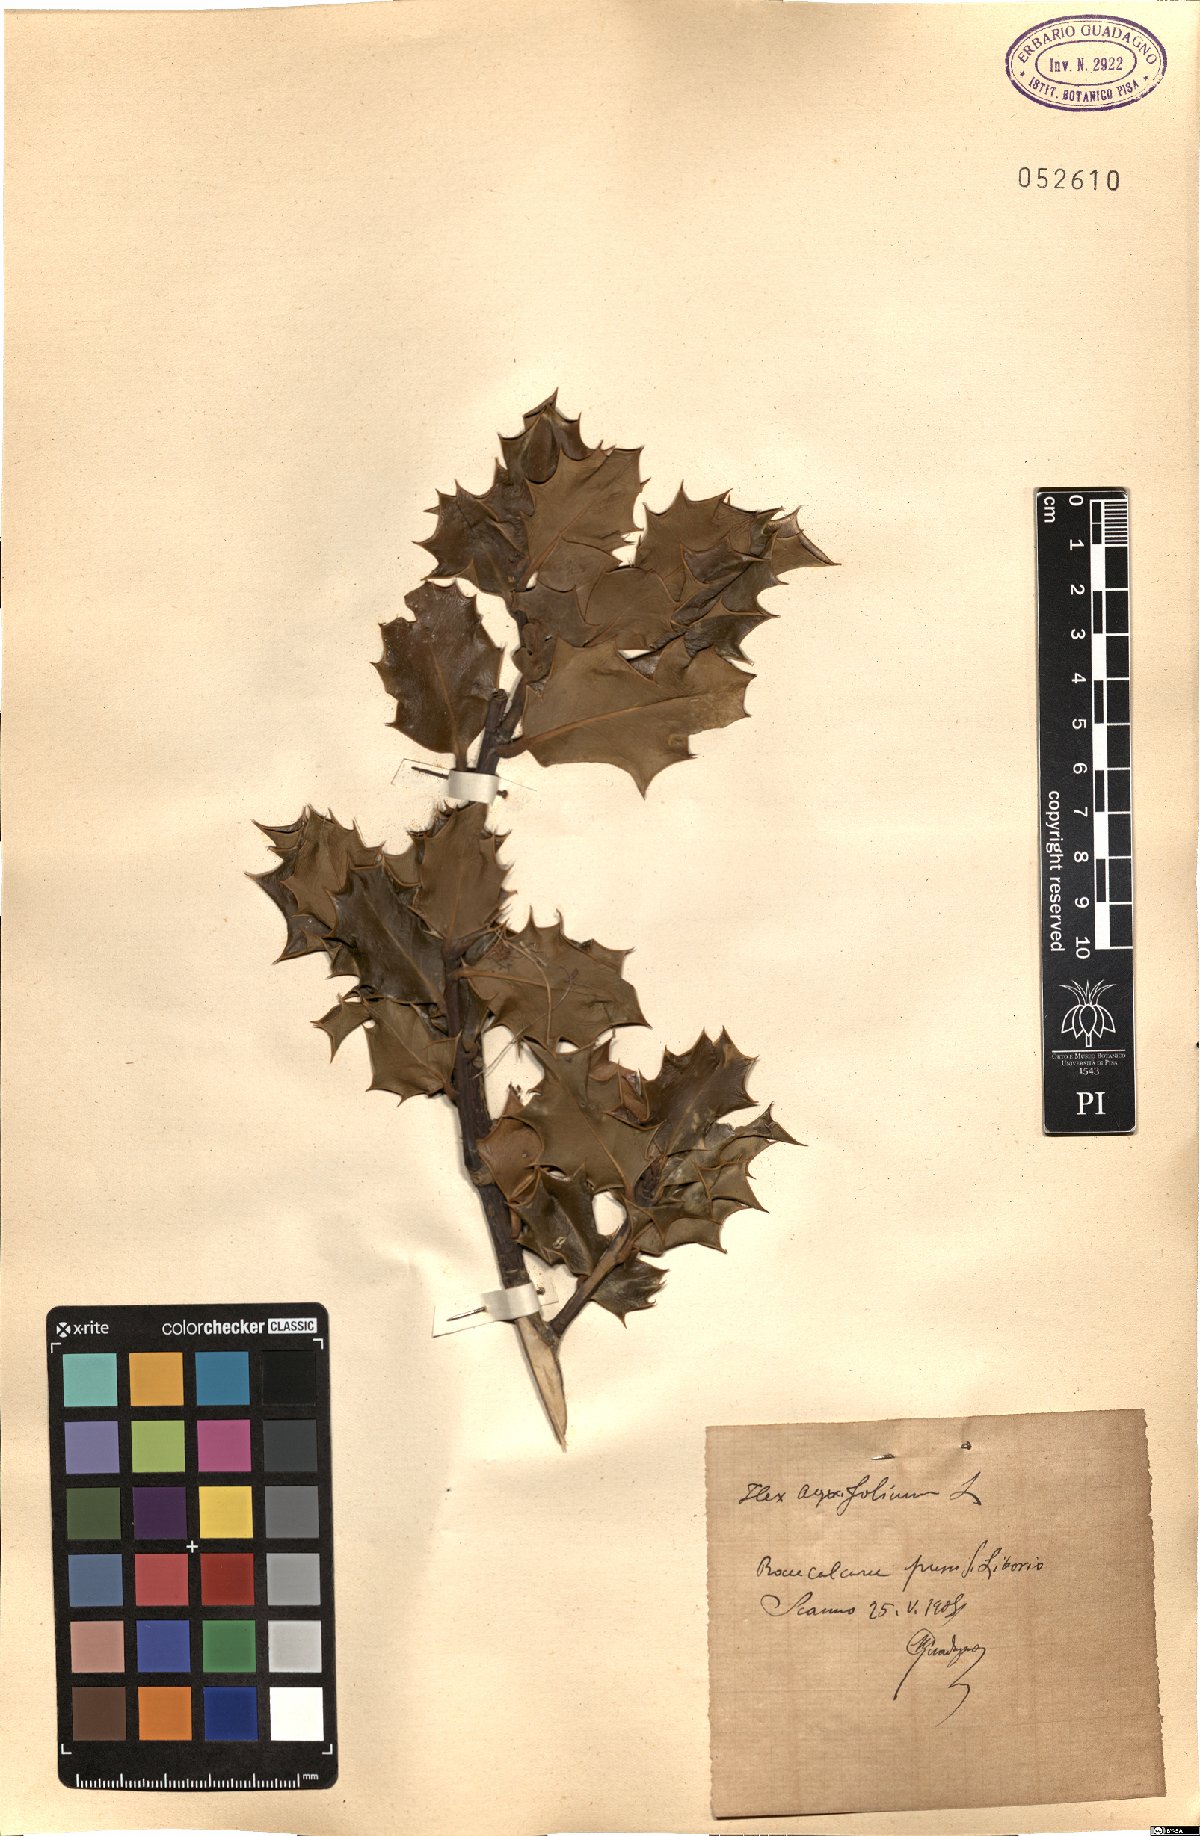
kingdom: Plantae
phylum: Tracheophyta
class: Magnoliopsida
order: Aquifoliales
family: Aquifoliaceae
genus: Ilex
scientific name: Ilex aquifolium
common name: English holly
